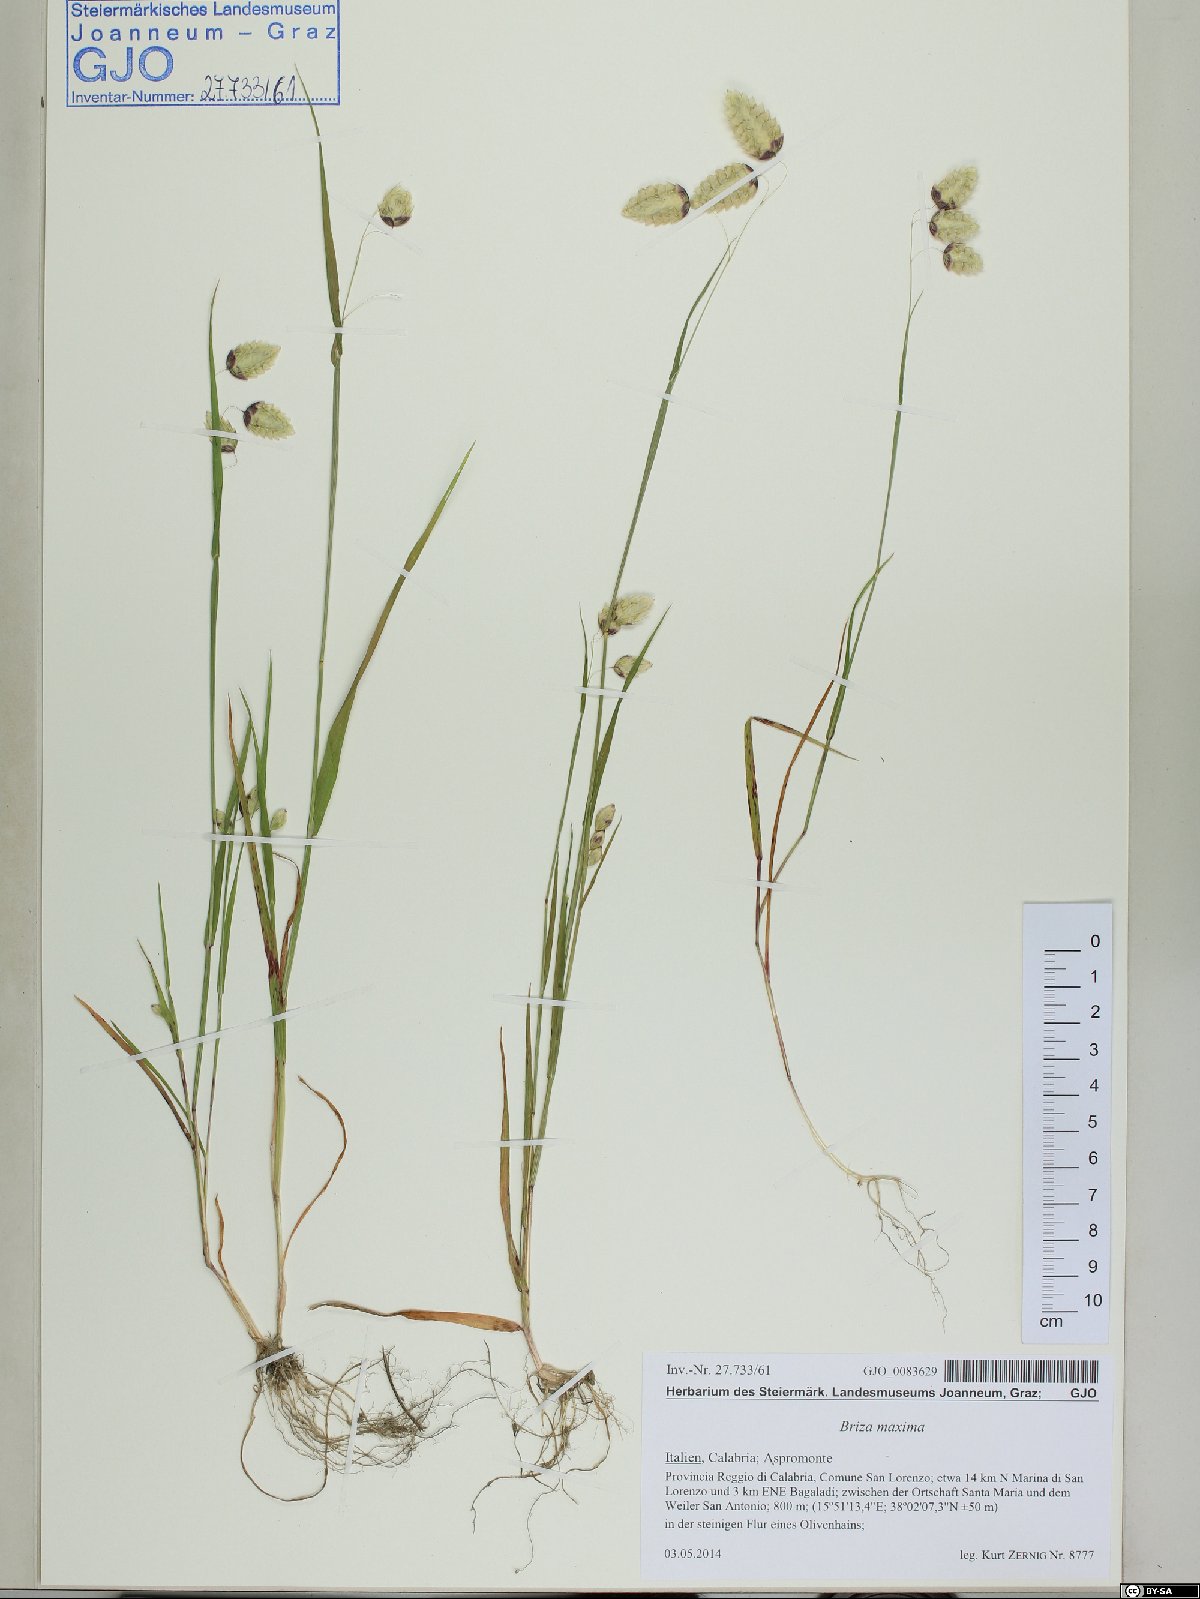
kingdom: Plantae
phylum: Tracheophyta
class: Liliopsida
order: Poales
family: Poaceae
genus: Briza
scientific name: Briza maxima
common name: Big quakinggrass
